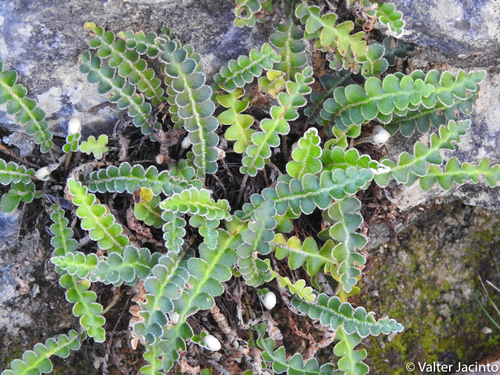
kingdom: Plantae
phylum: Tracheophyta
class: Polypodiopsida
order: Polypodiales
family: Aspleniaceae
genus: Asplenium
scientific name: Asplenium ceterach
